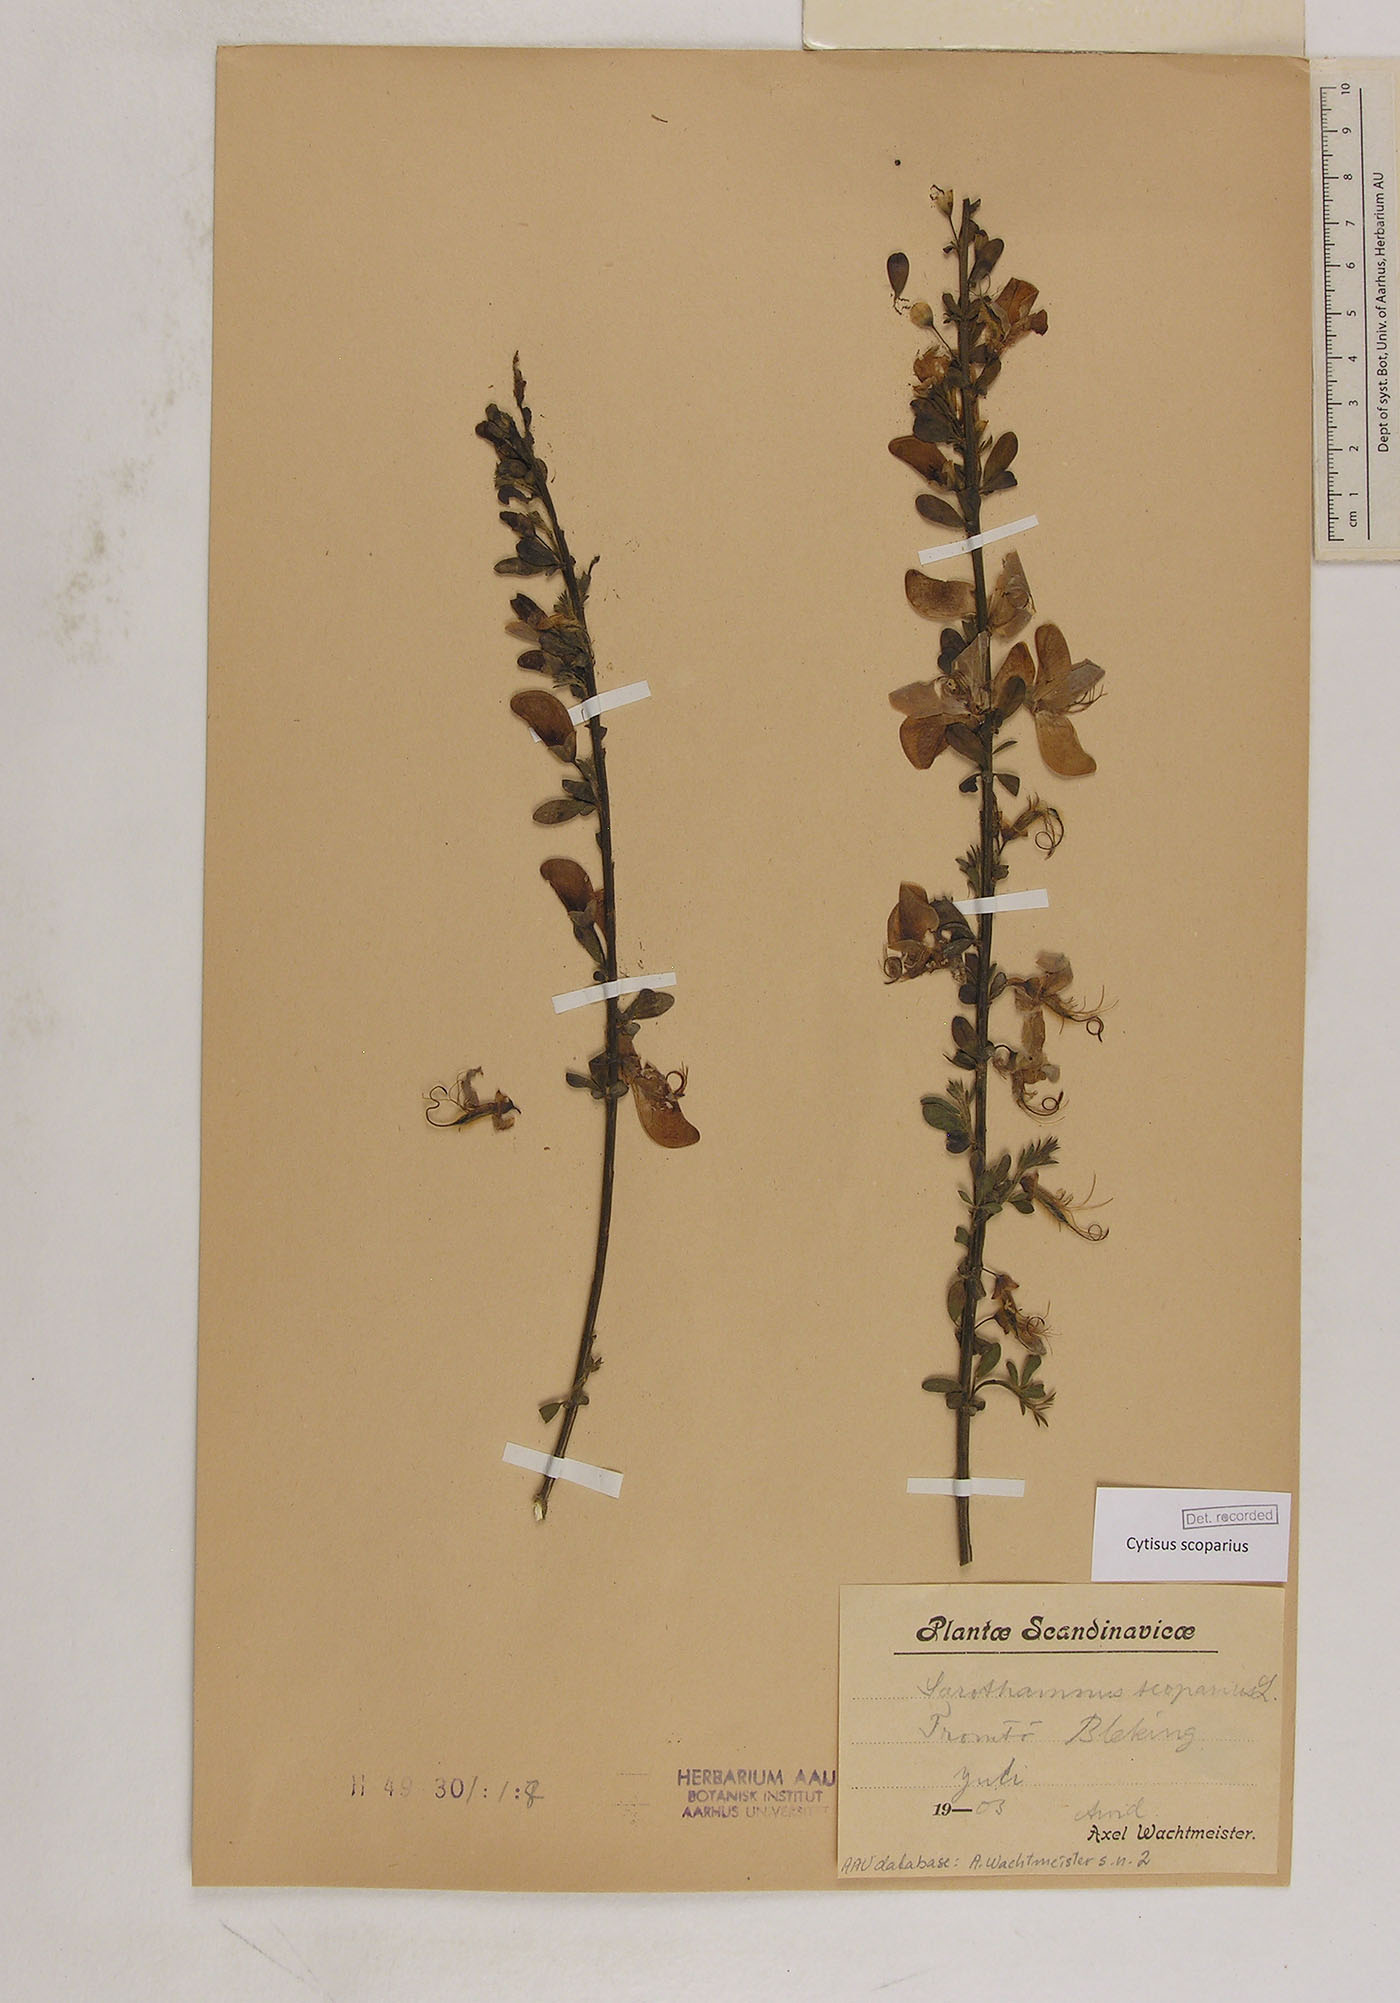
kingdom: Plantae
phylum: Tracheophyta
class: Magnoliopsida
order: Fabales
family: Fabaceae
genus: Cytisus
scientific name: Cytisus scoparius
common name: Scotch broom
